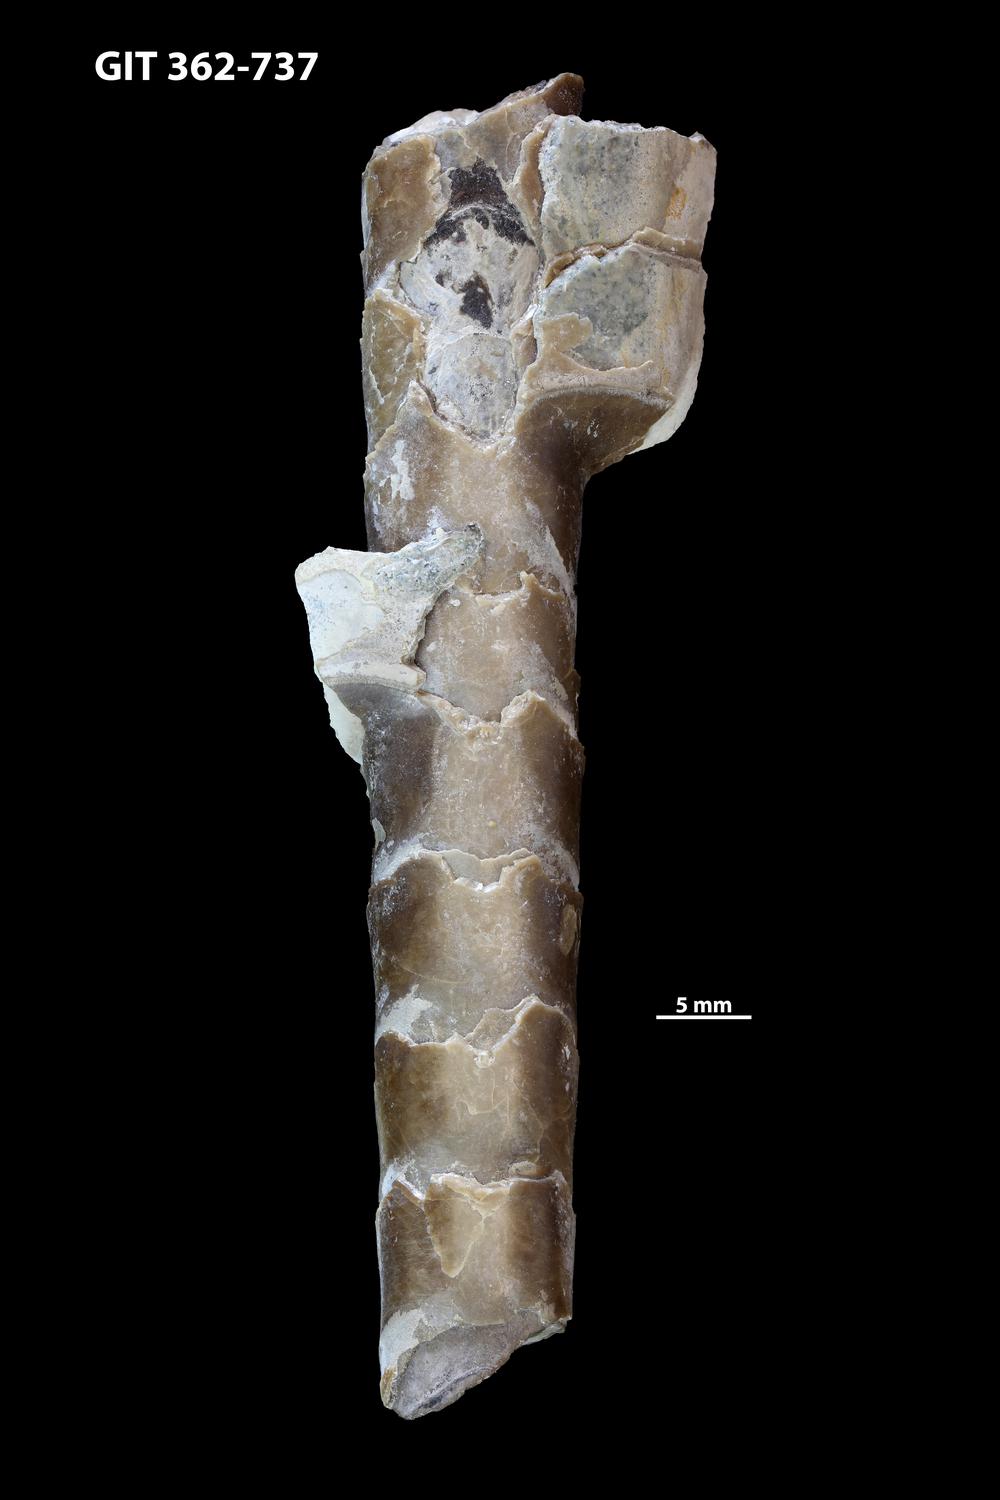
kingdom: Animalia
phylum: Mollusca
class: Cephalopoda
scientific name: Cephalopoda
